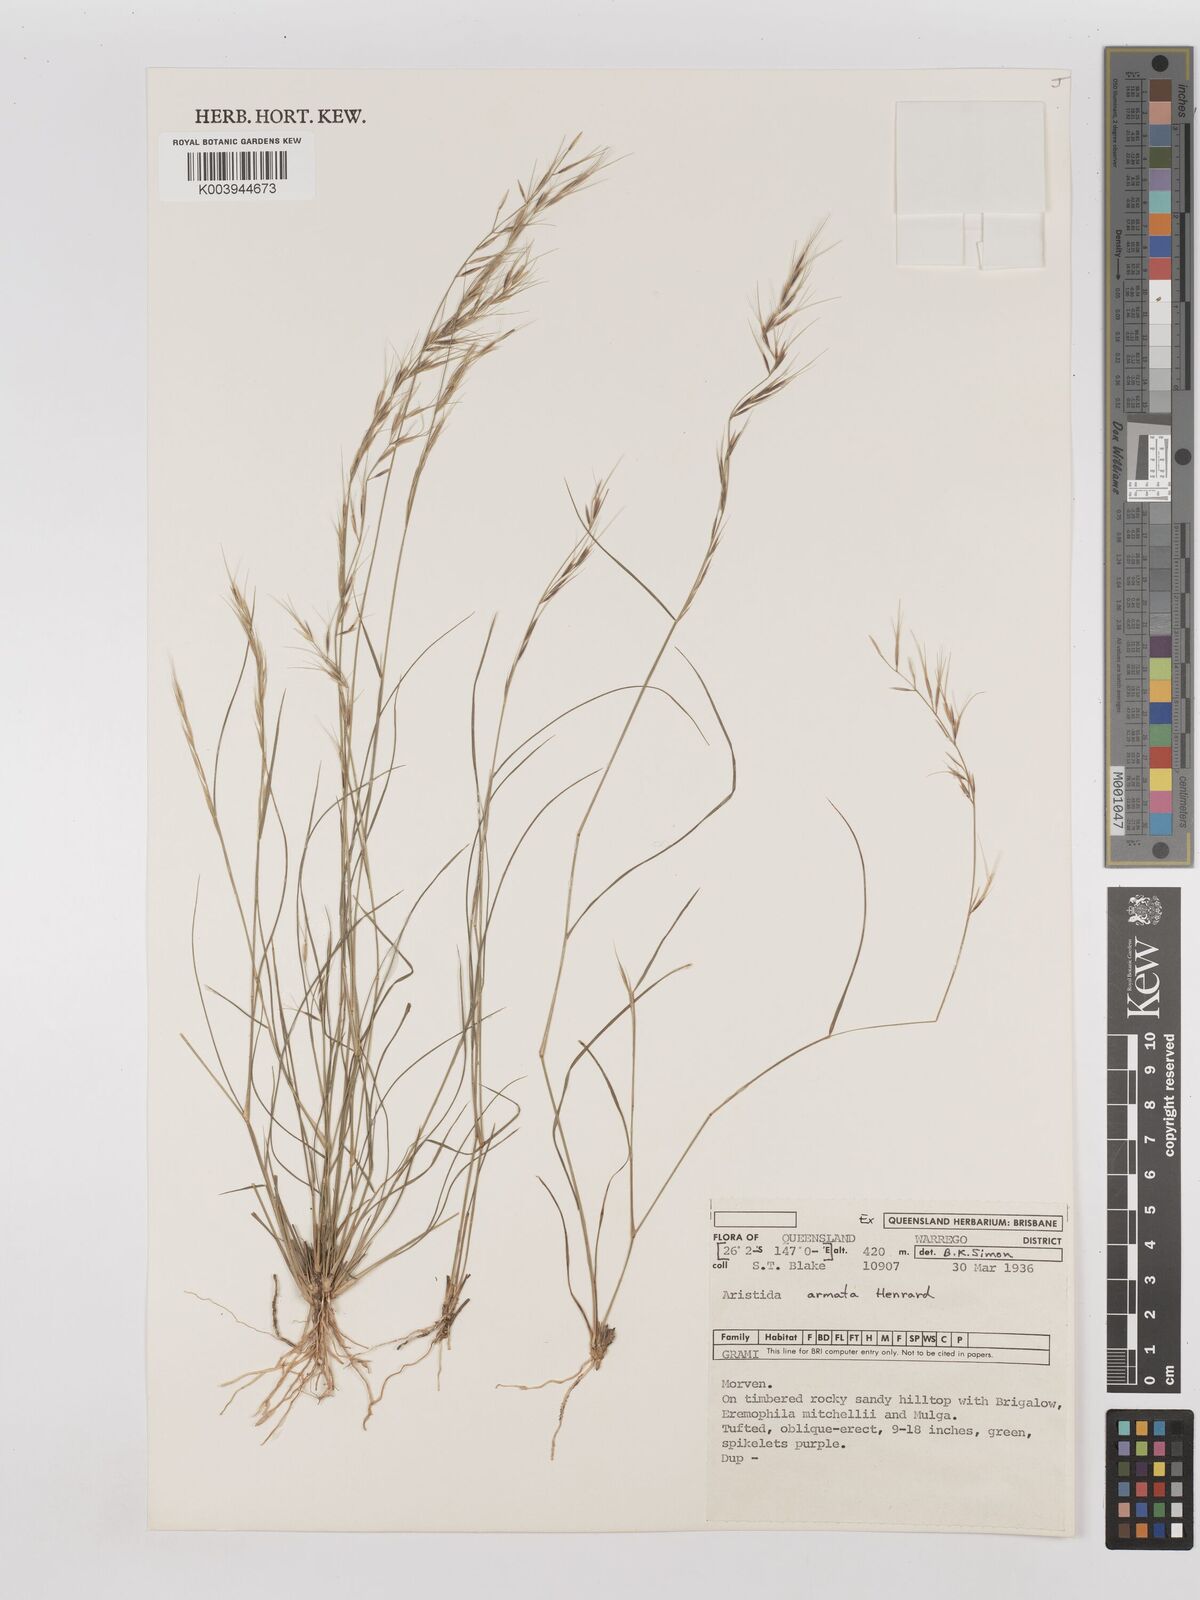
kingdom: Plantae
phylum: Tracheophyta
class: Liliopsida
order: Poales
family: Poaceae
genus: Aristida
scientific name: Aristida calycina
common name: Dark wire grass
